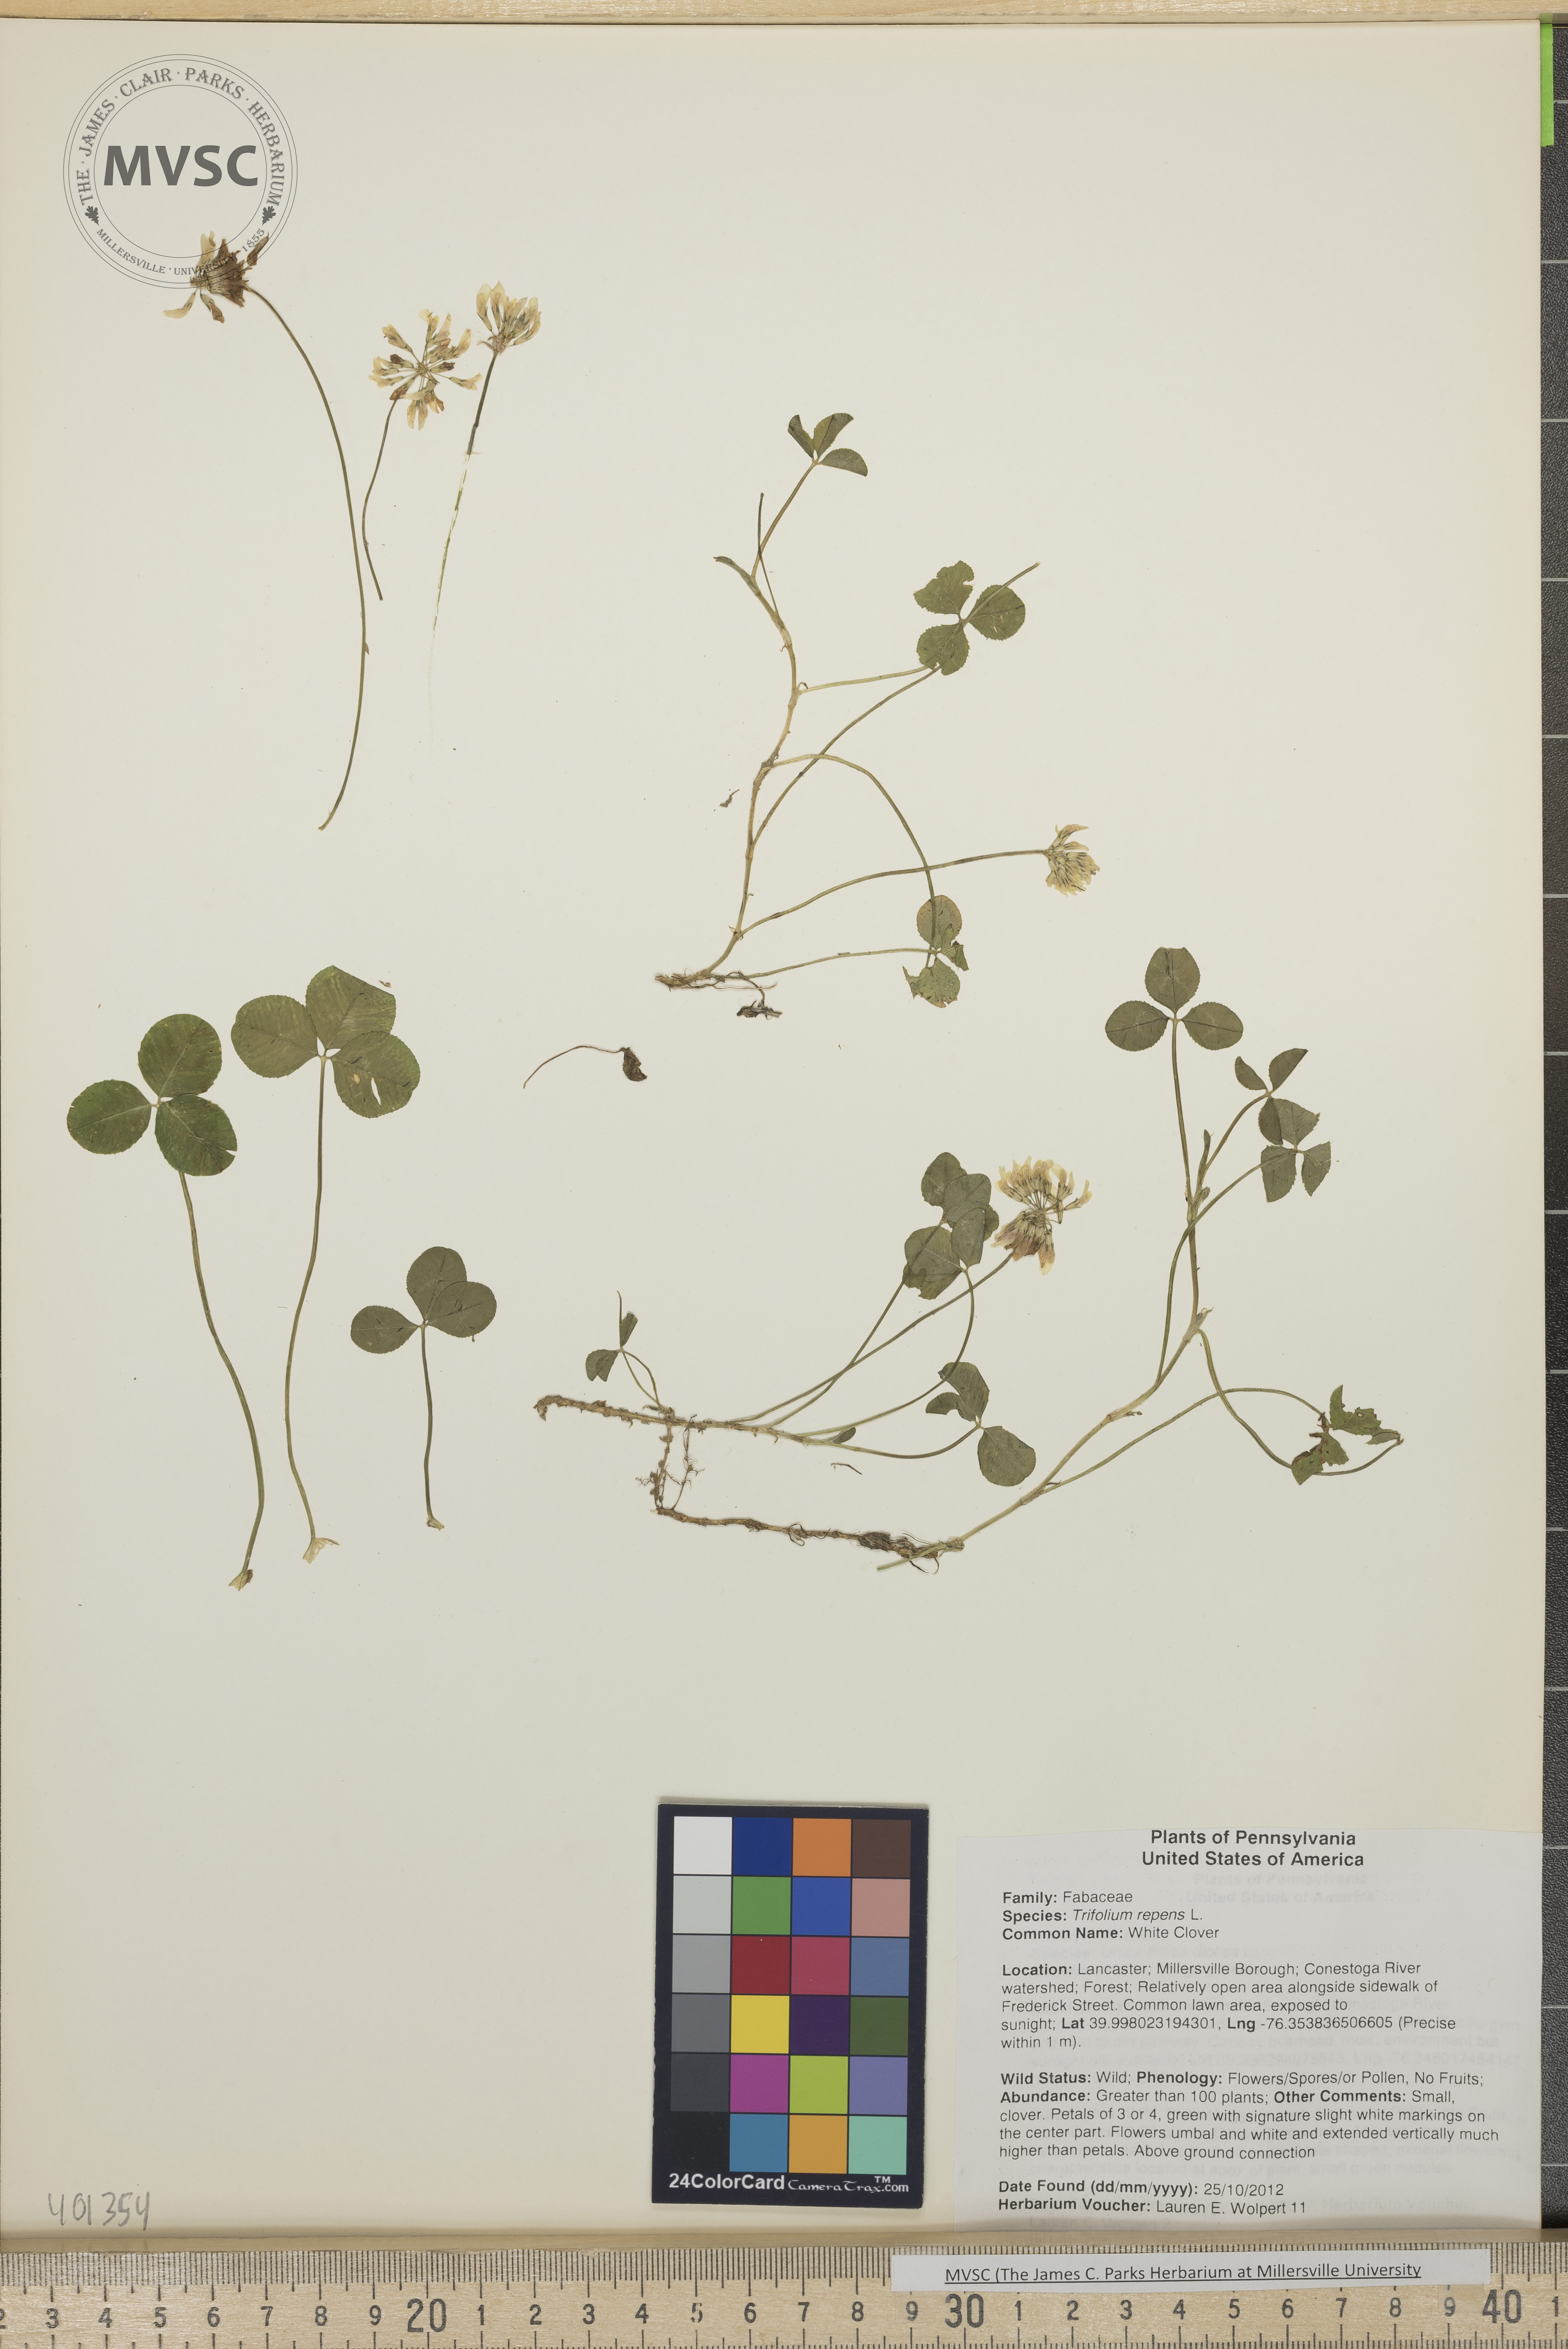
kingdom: Plantae
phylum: Tracheophyta
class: Magnoliopsida
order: Fabales
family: Fabaceae
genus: Trifolium
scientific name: Trifolium repens
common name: White Clover
